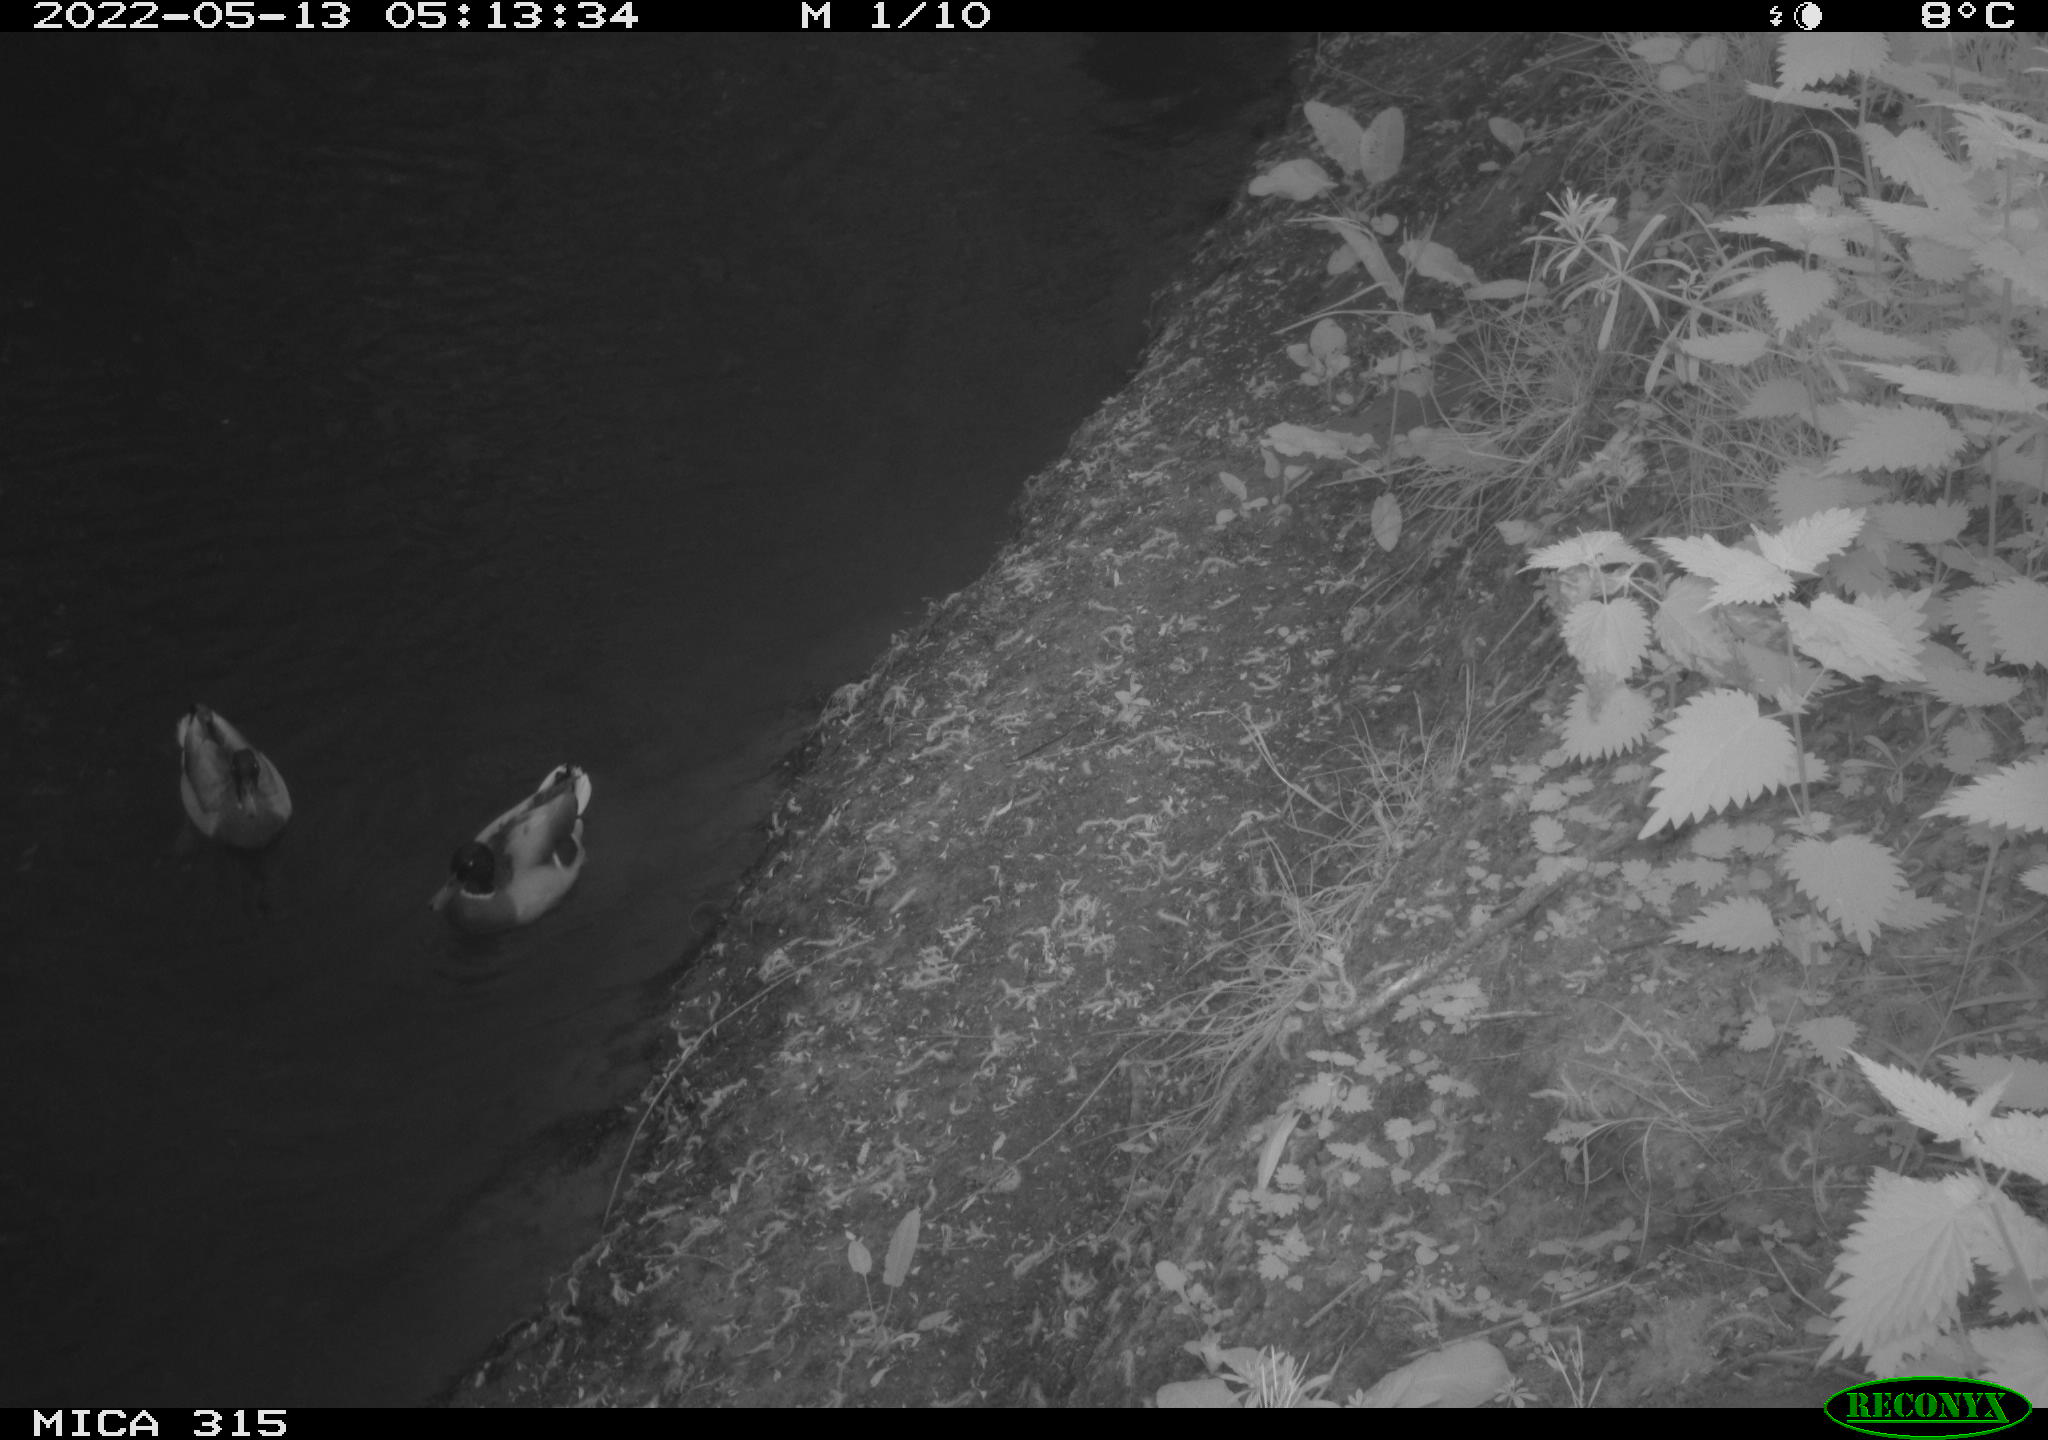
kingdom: Animalia
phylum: Chordata
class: Aves
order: Anseriformes
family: Anatidae
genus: Anas
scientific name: Anas
